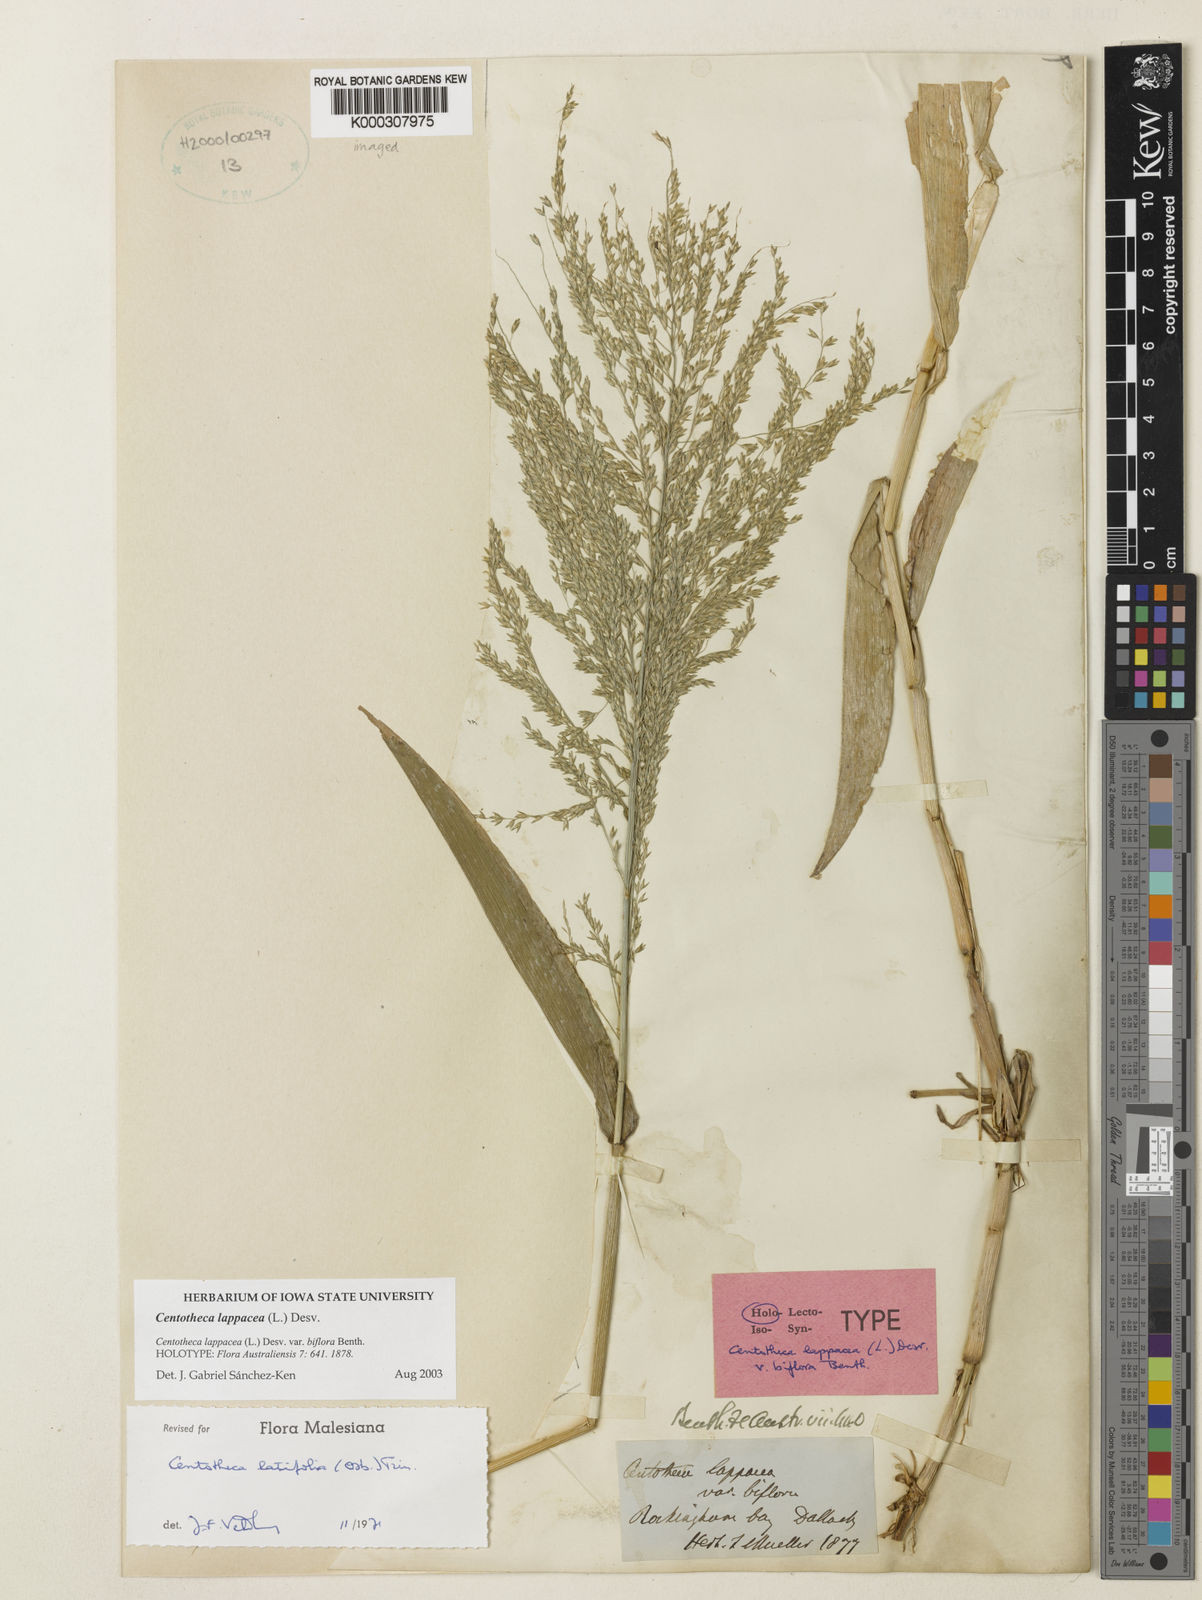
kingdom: Plantae
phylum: Tracheophyta
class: Liliopsida
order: Poales
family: Poaceae
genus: Centotheca
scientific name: Centotheca lappacea
